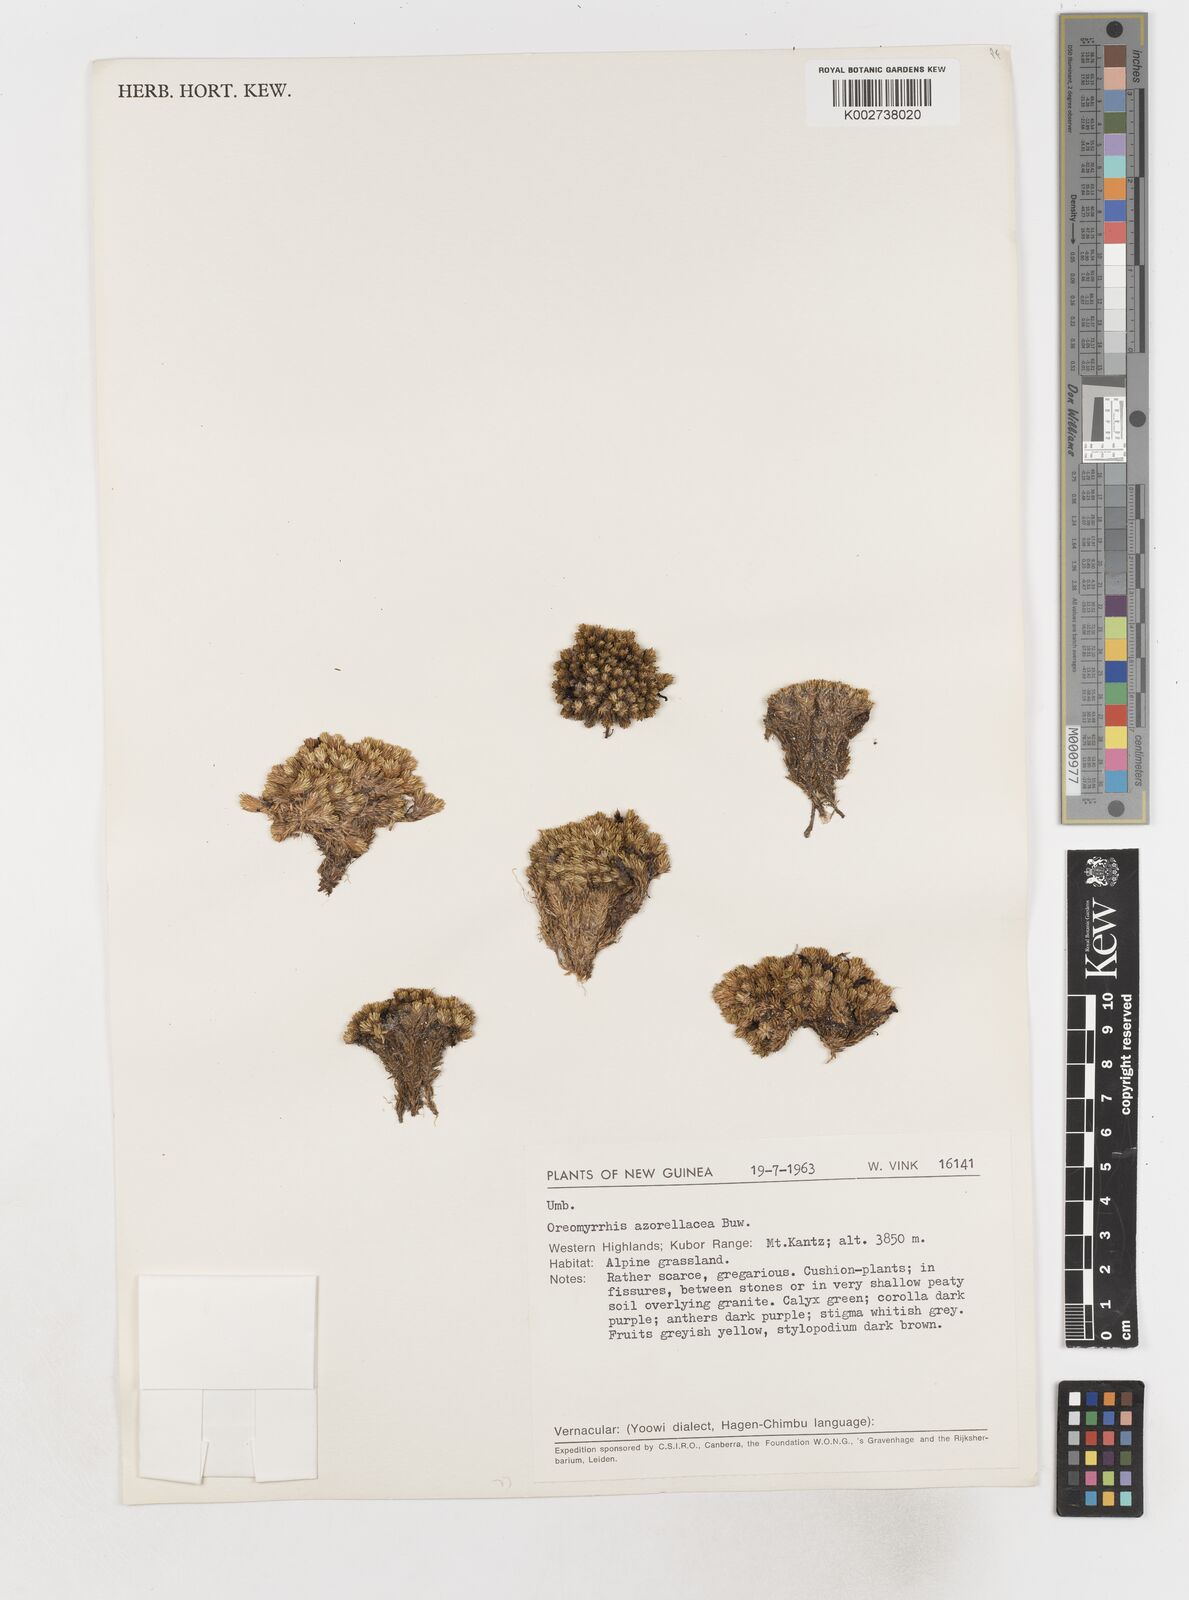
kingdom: Plantae
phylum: Tracheophyta
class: Magnoliopsida
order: Apiales
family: Apiaceae
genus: Chaerophyllum
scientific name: Chaerophyllum azorellaceum
